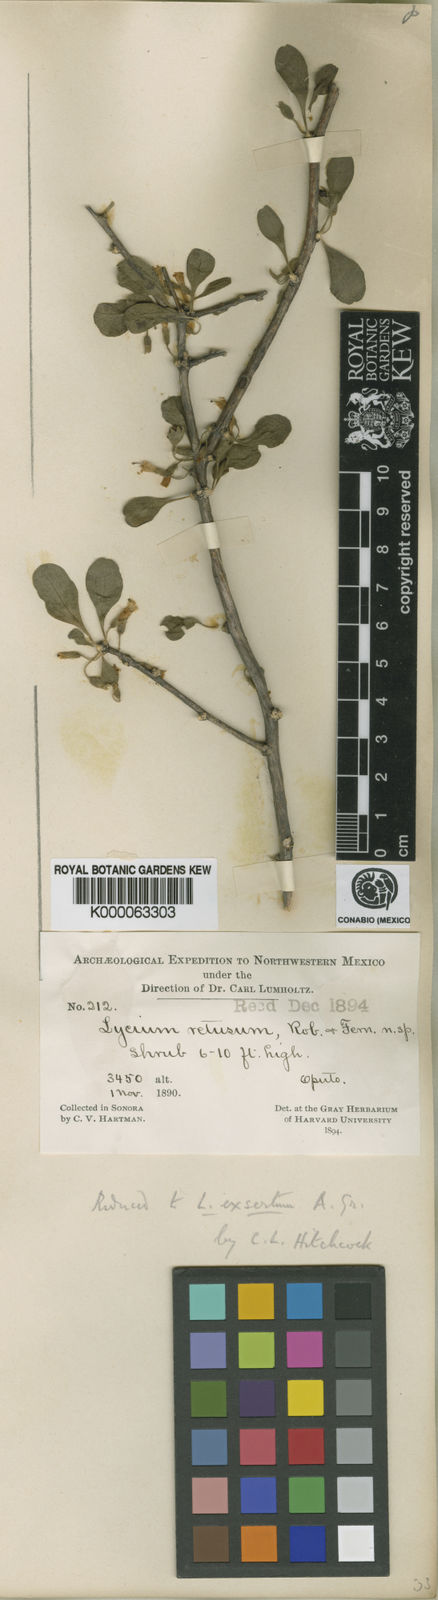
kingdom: Plantae
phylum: Tracheophyta
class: Magnoliopsida
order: Solanales
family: Solanaceae
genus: Lycium
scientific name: Lycium exsertum
